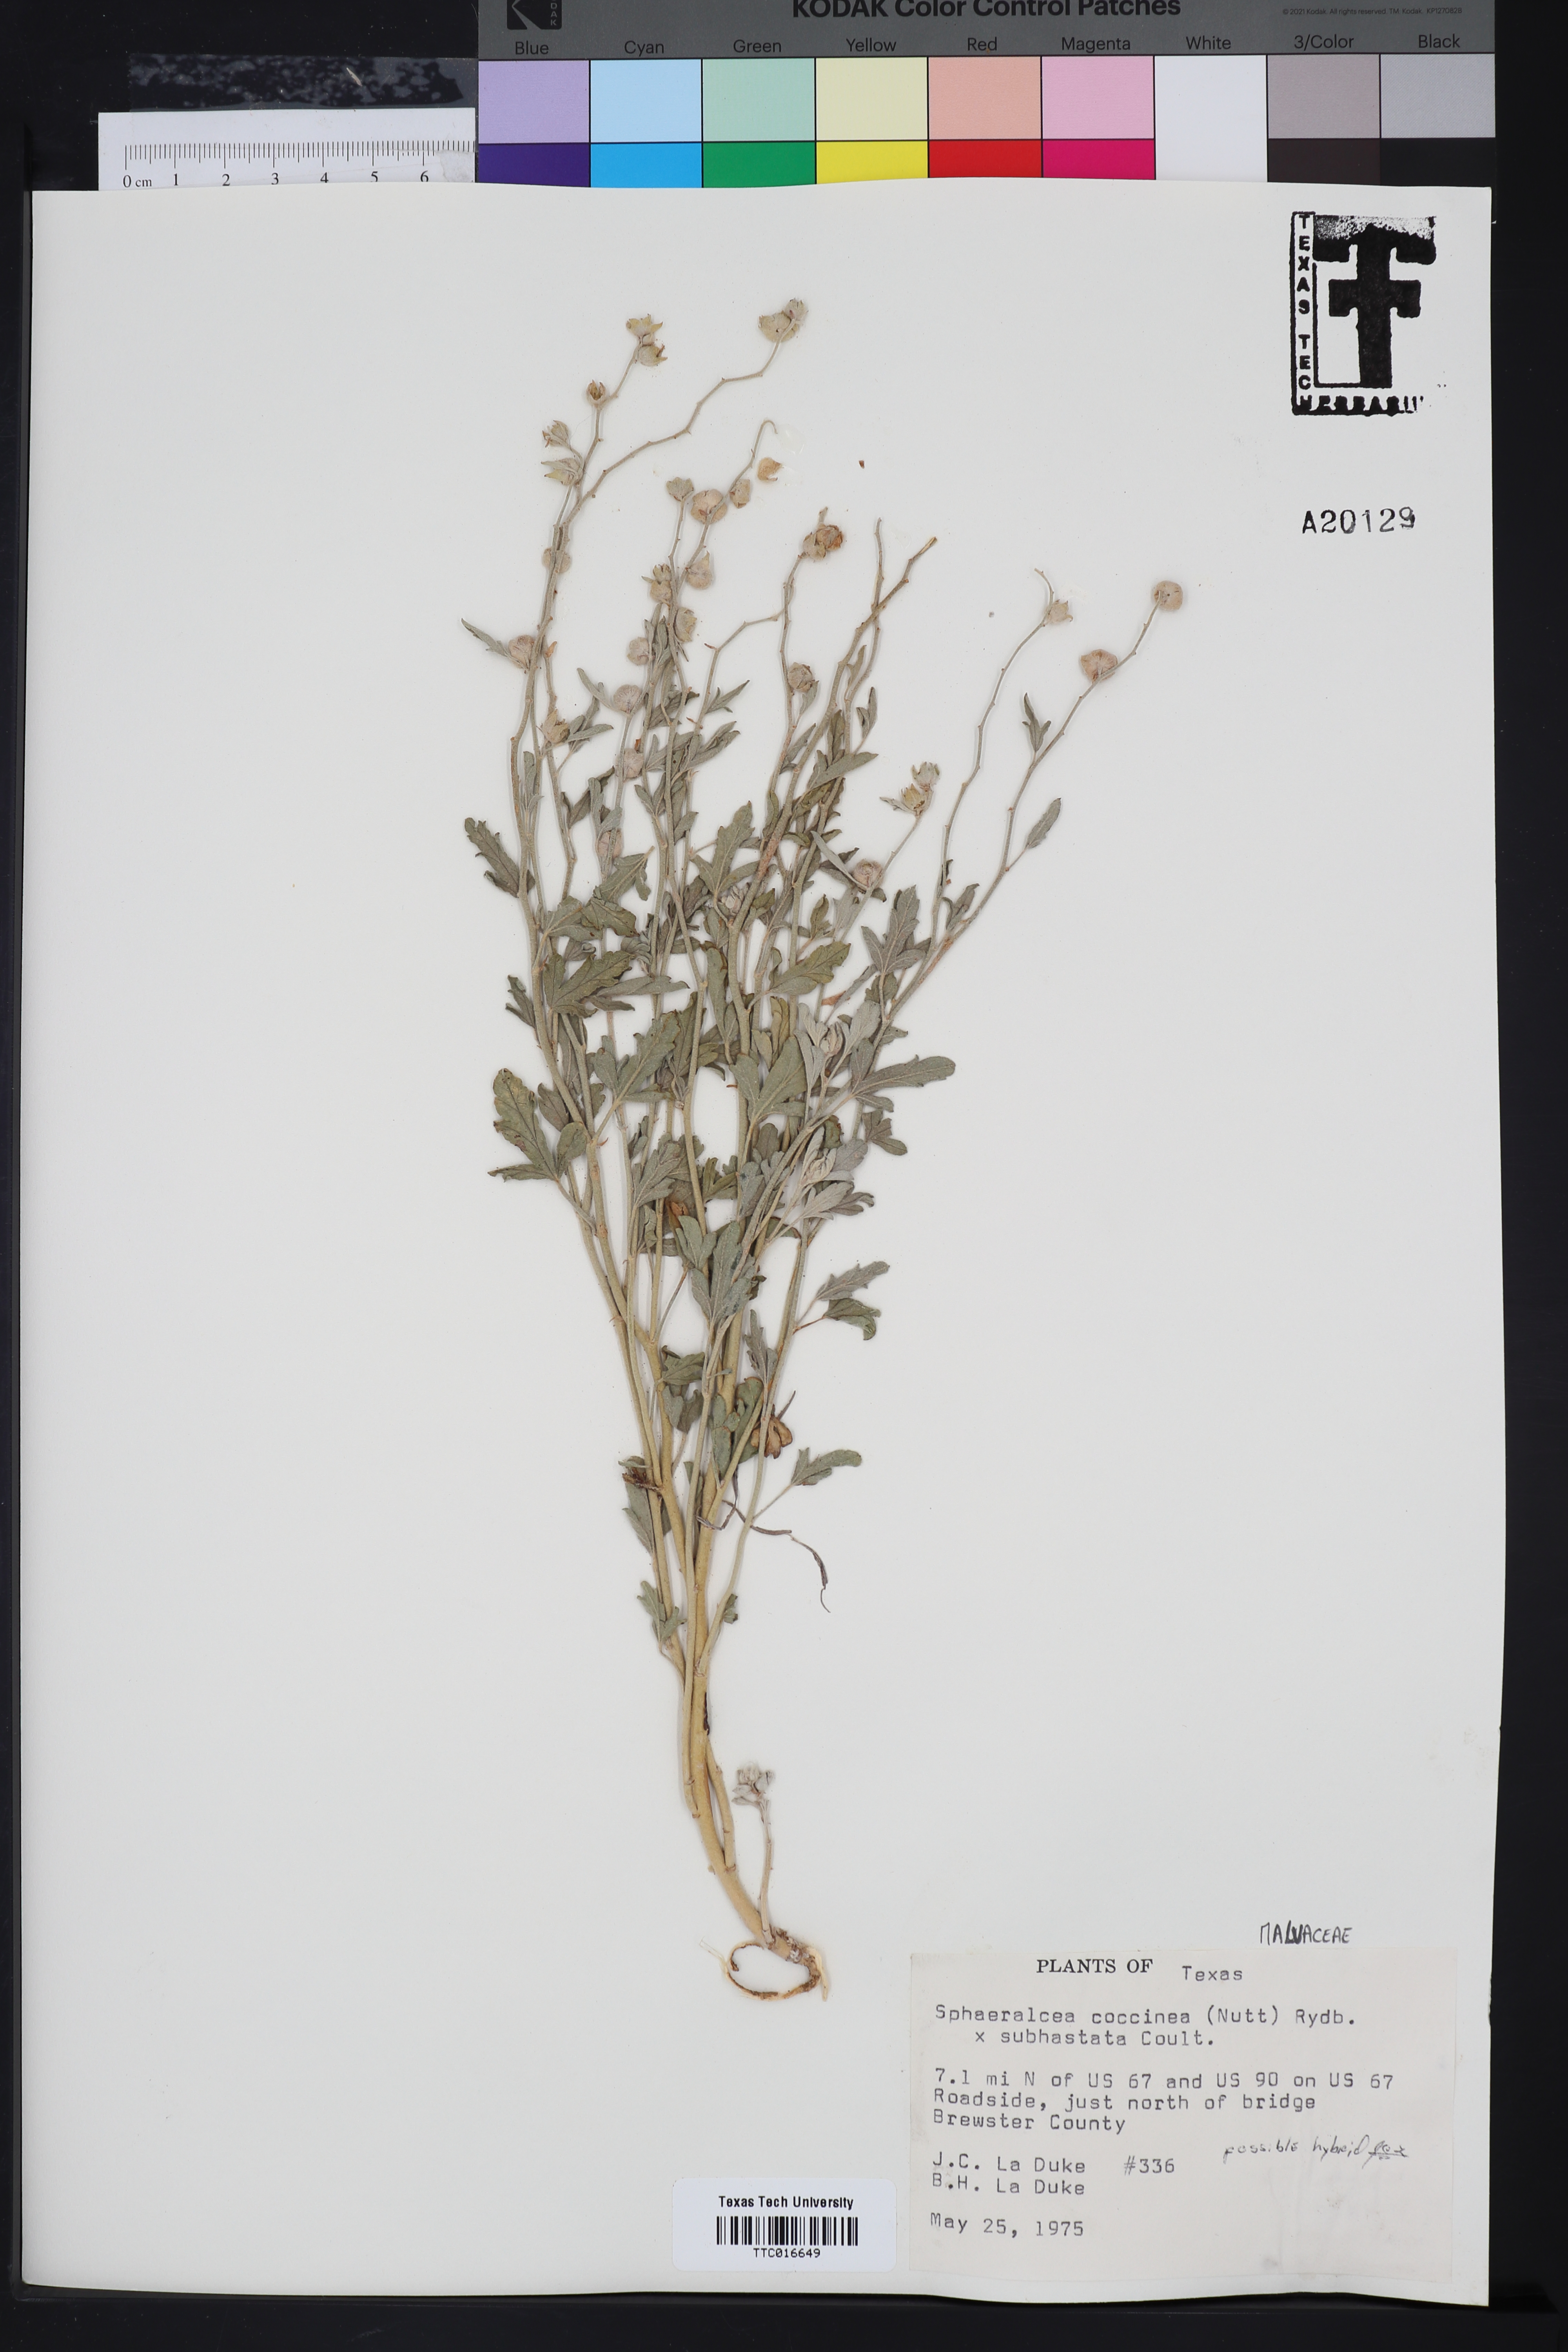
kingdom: Plantae
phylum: Tracheophyta
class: Magnoliopsida
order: Malvales
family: Malvaceae
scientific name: Malvaceae
